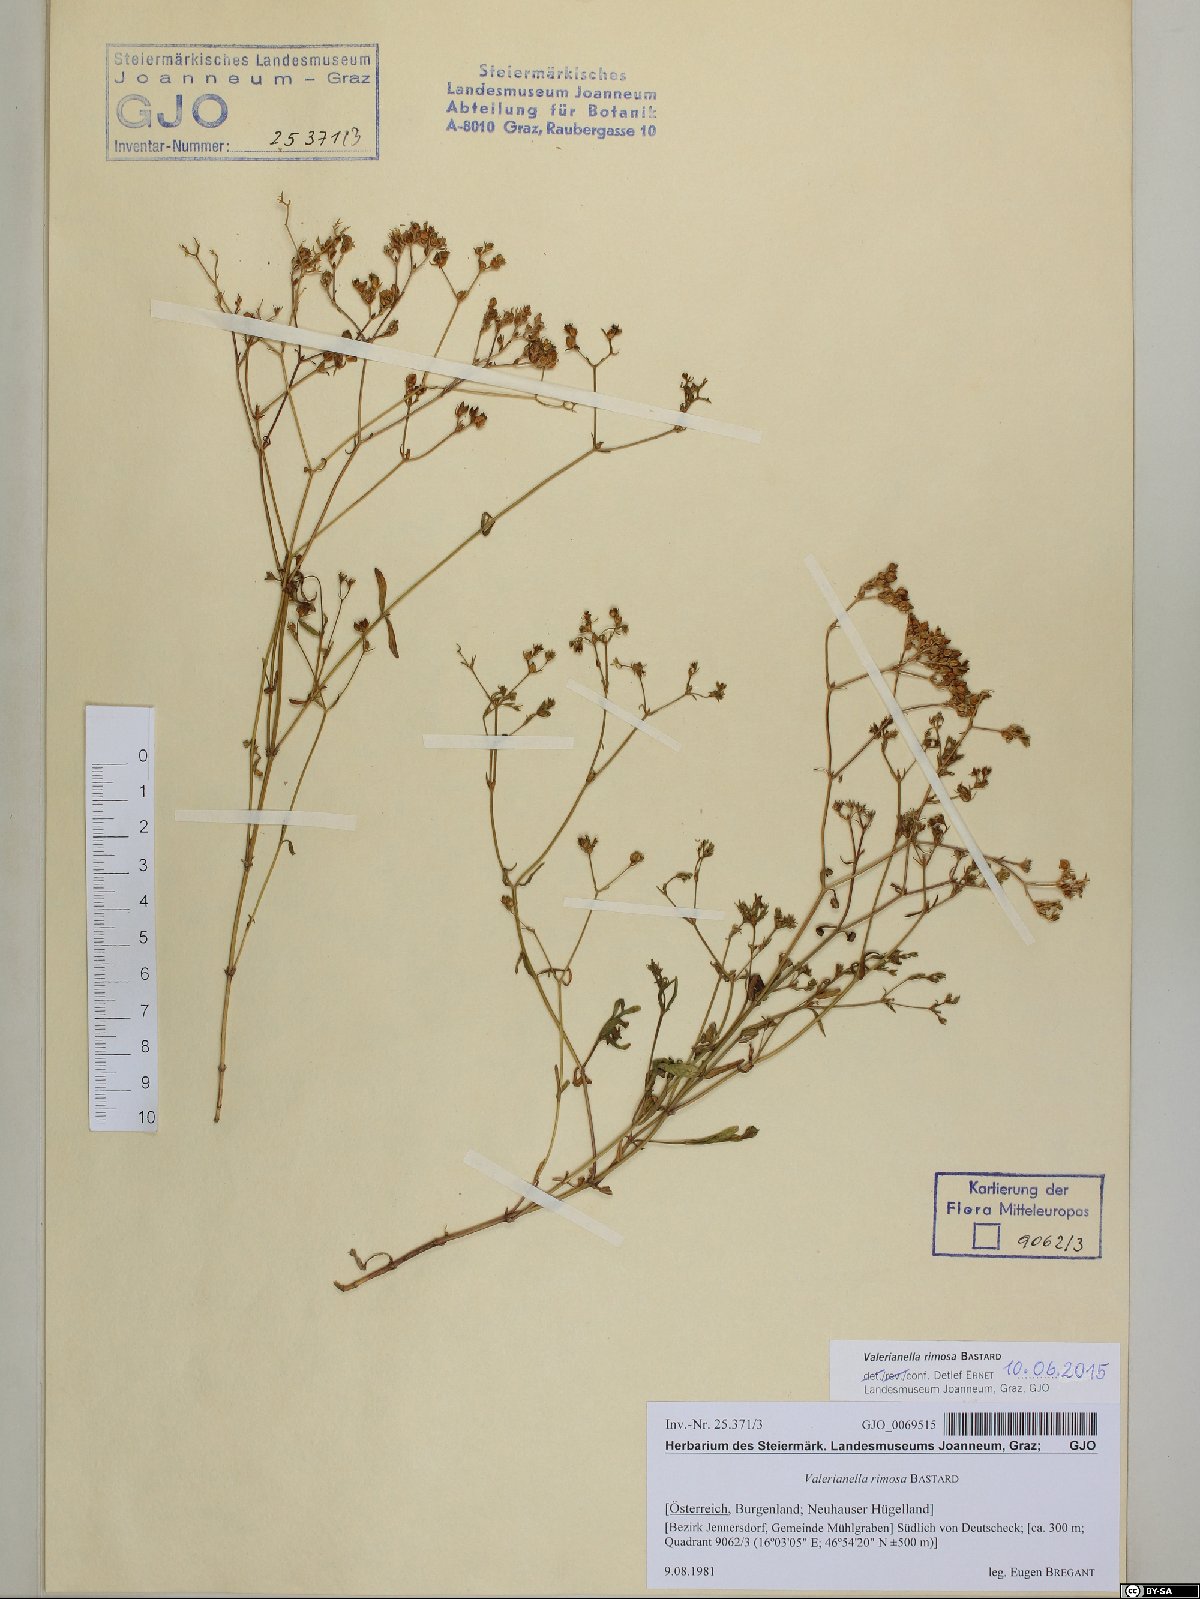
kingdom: Plantae
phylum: Tracheophyta
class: Magnoliopsida
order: Dipsacales
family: Caprifoliaceae
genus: Valerianella
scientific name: Valerianella rimosa
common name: Broad-fruited cornsalad
